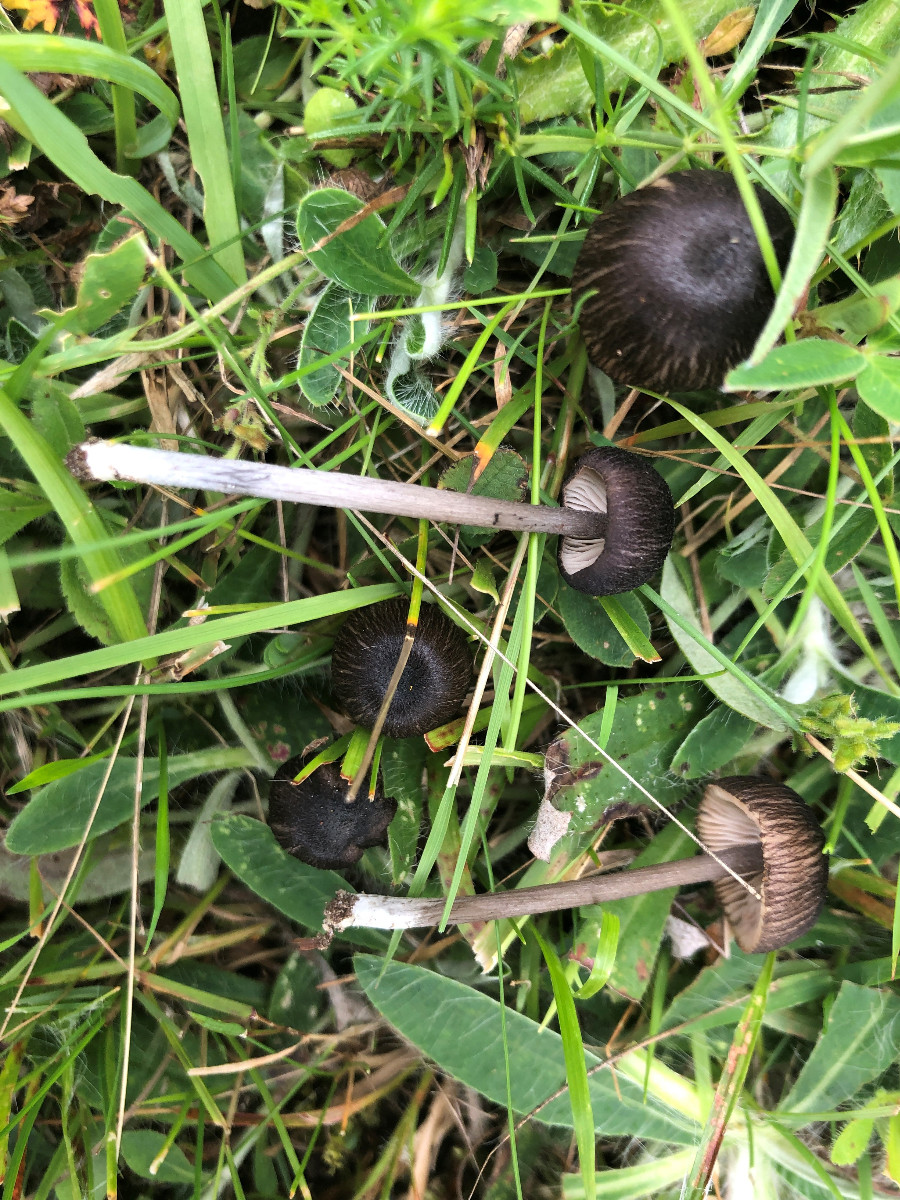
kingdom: Fungi
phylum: Basidiomycota
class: Agaricomycetes
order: Agaricales
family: Entolomataceae
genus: Entoloma
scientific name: Entoloma porphyrogriseum
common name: porfyrgrå rødblad
